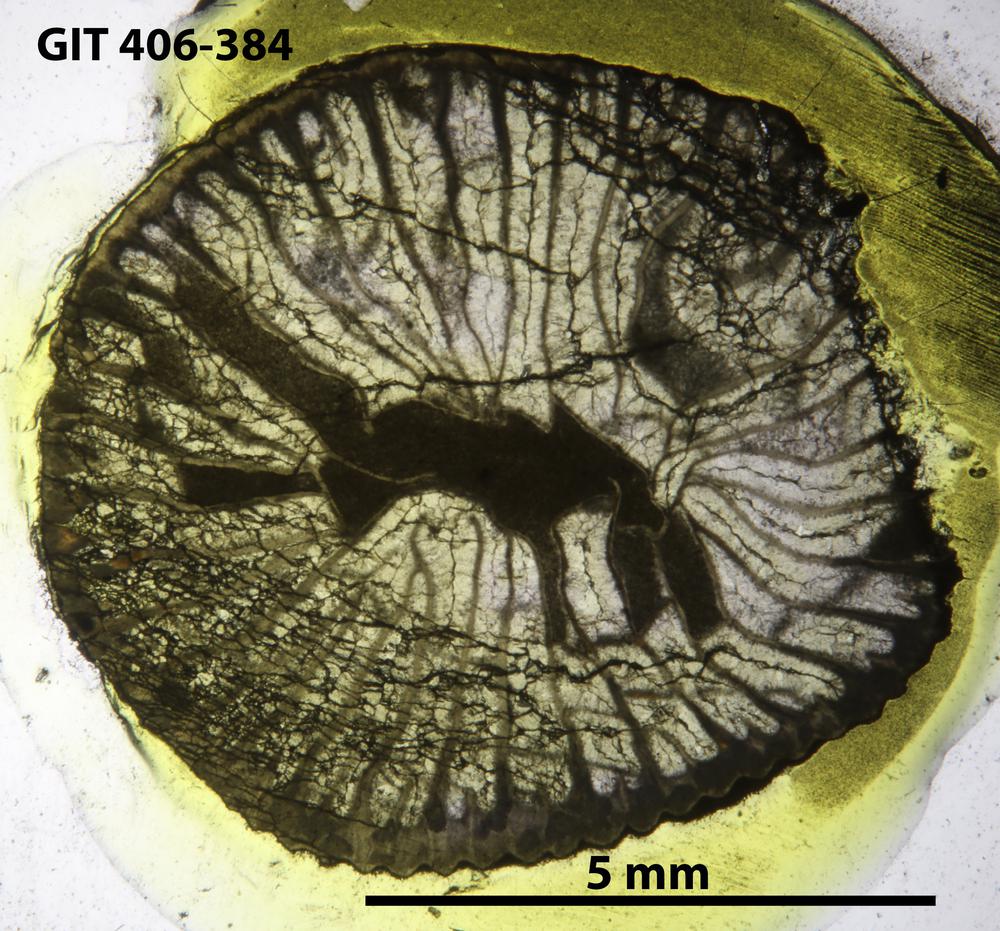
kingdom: Animalia
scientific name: Animalia
